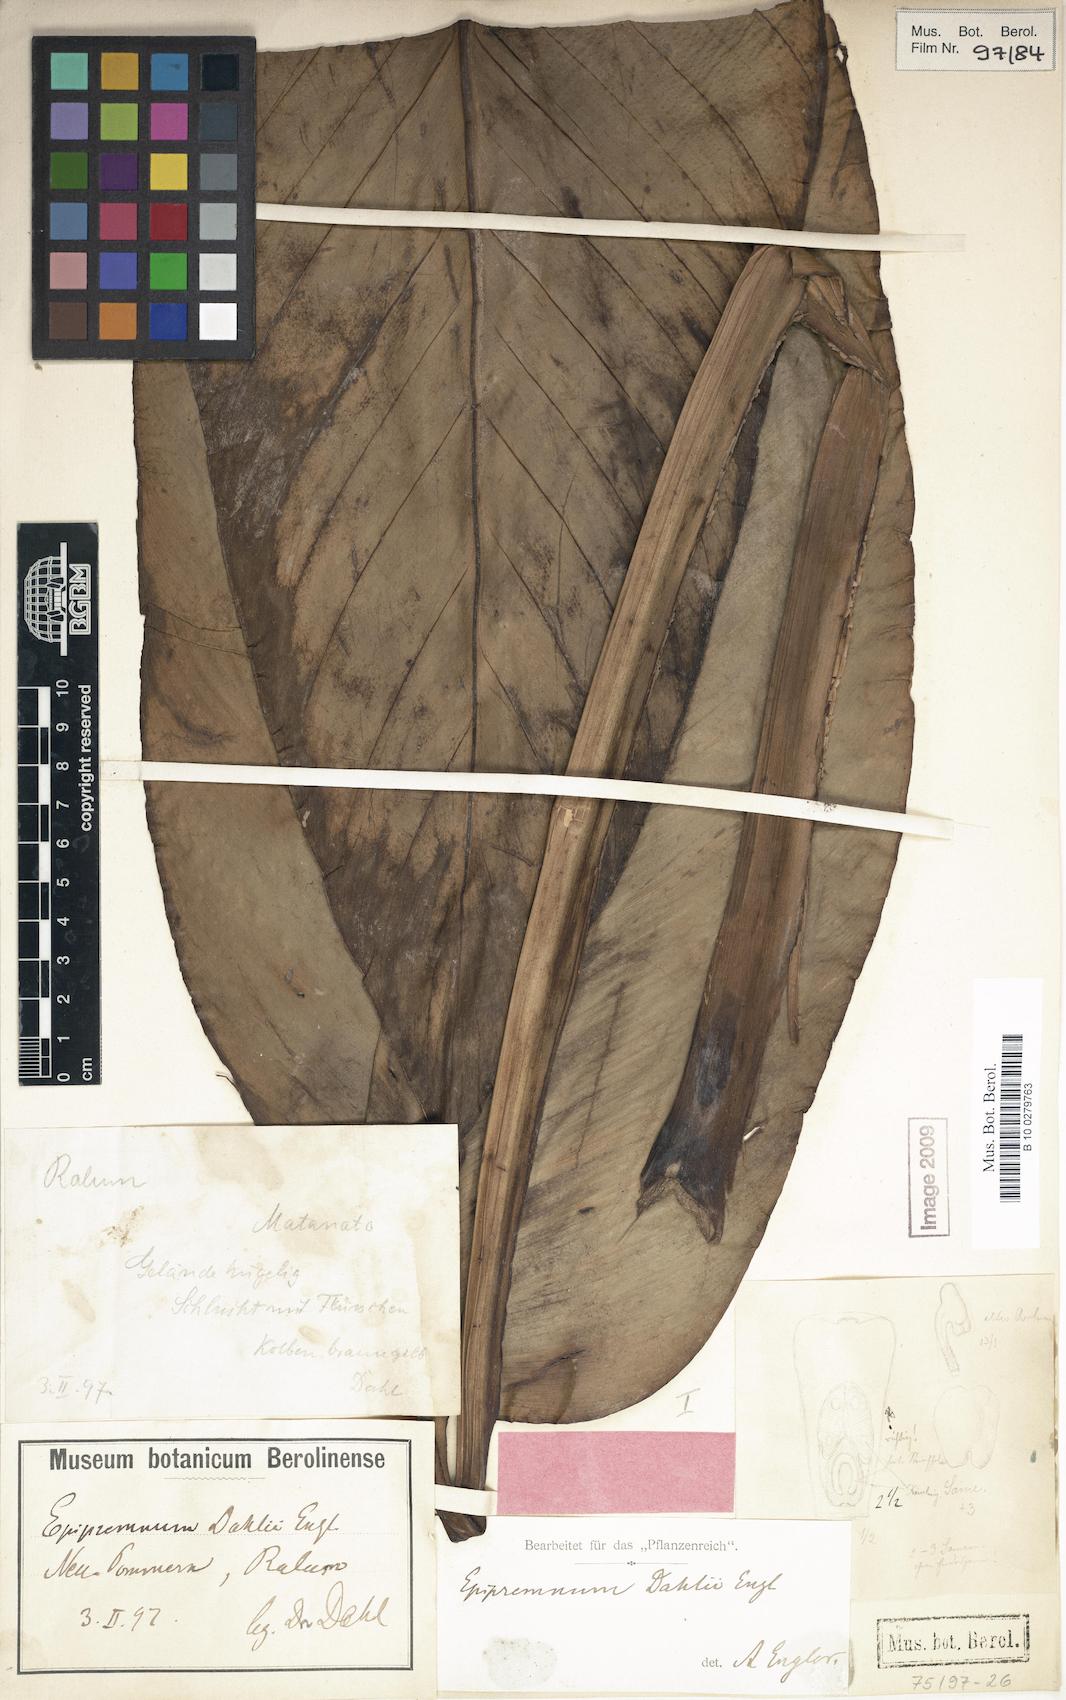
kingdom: Plantae
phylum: Tracheophyta
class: Liliopsida
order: Alismatales
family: Araceae
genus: Epipremnum
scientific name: Epipremnum dahlii
